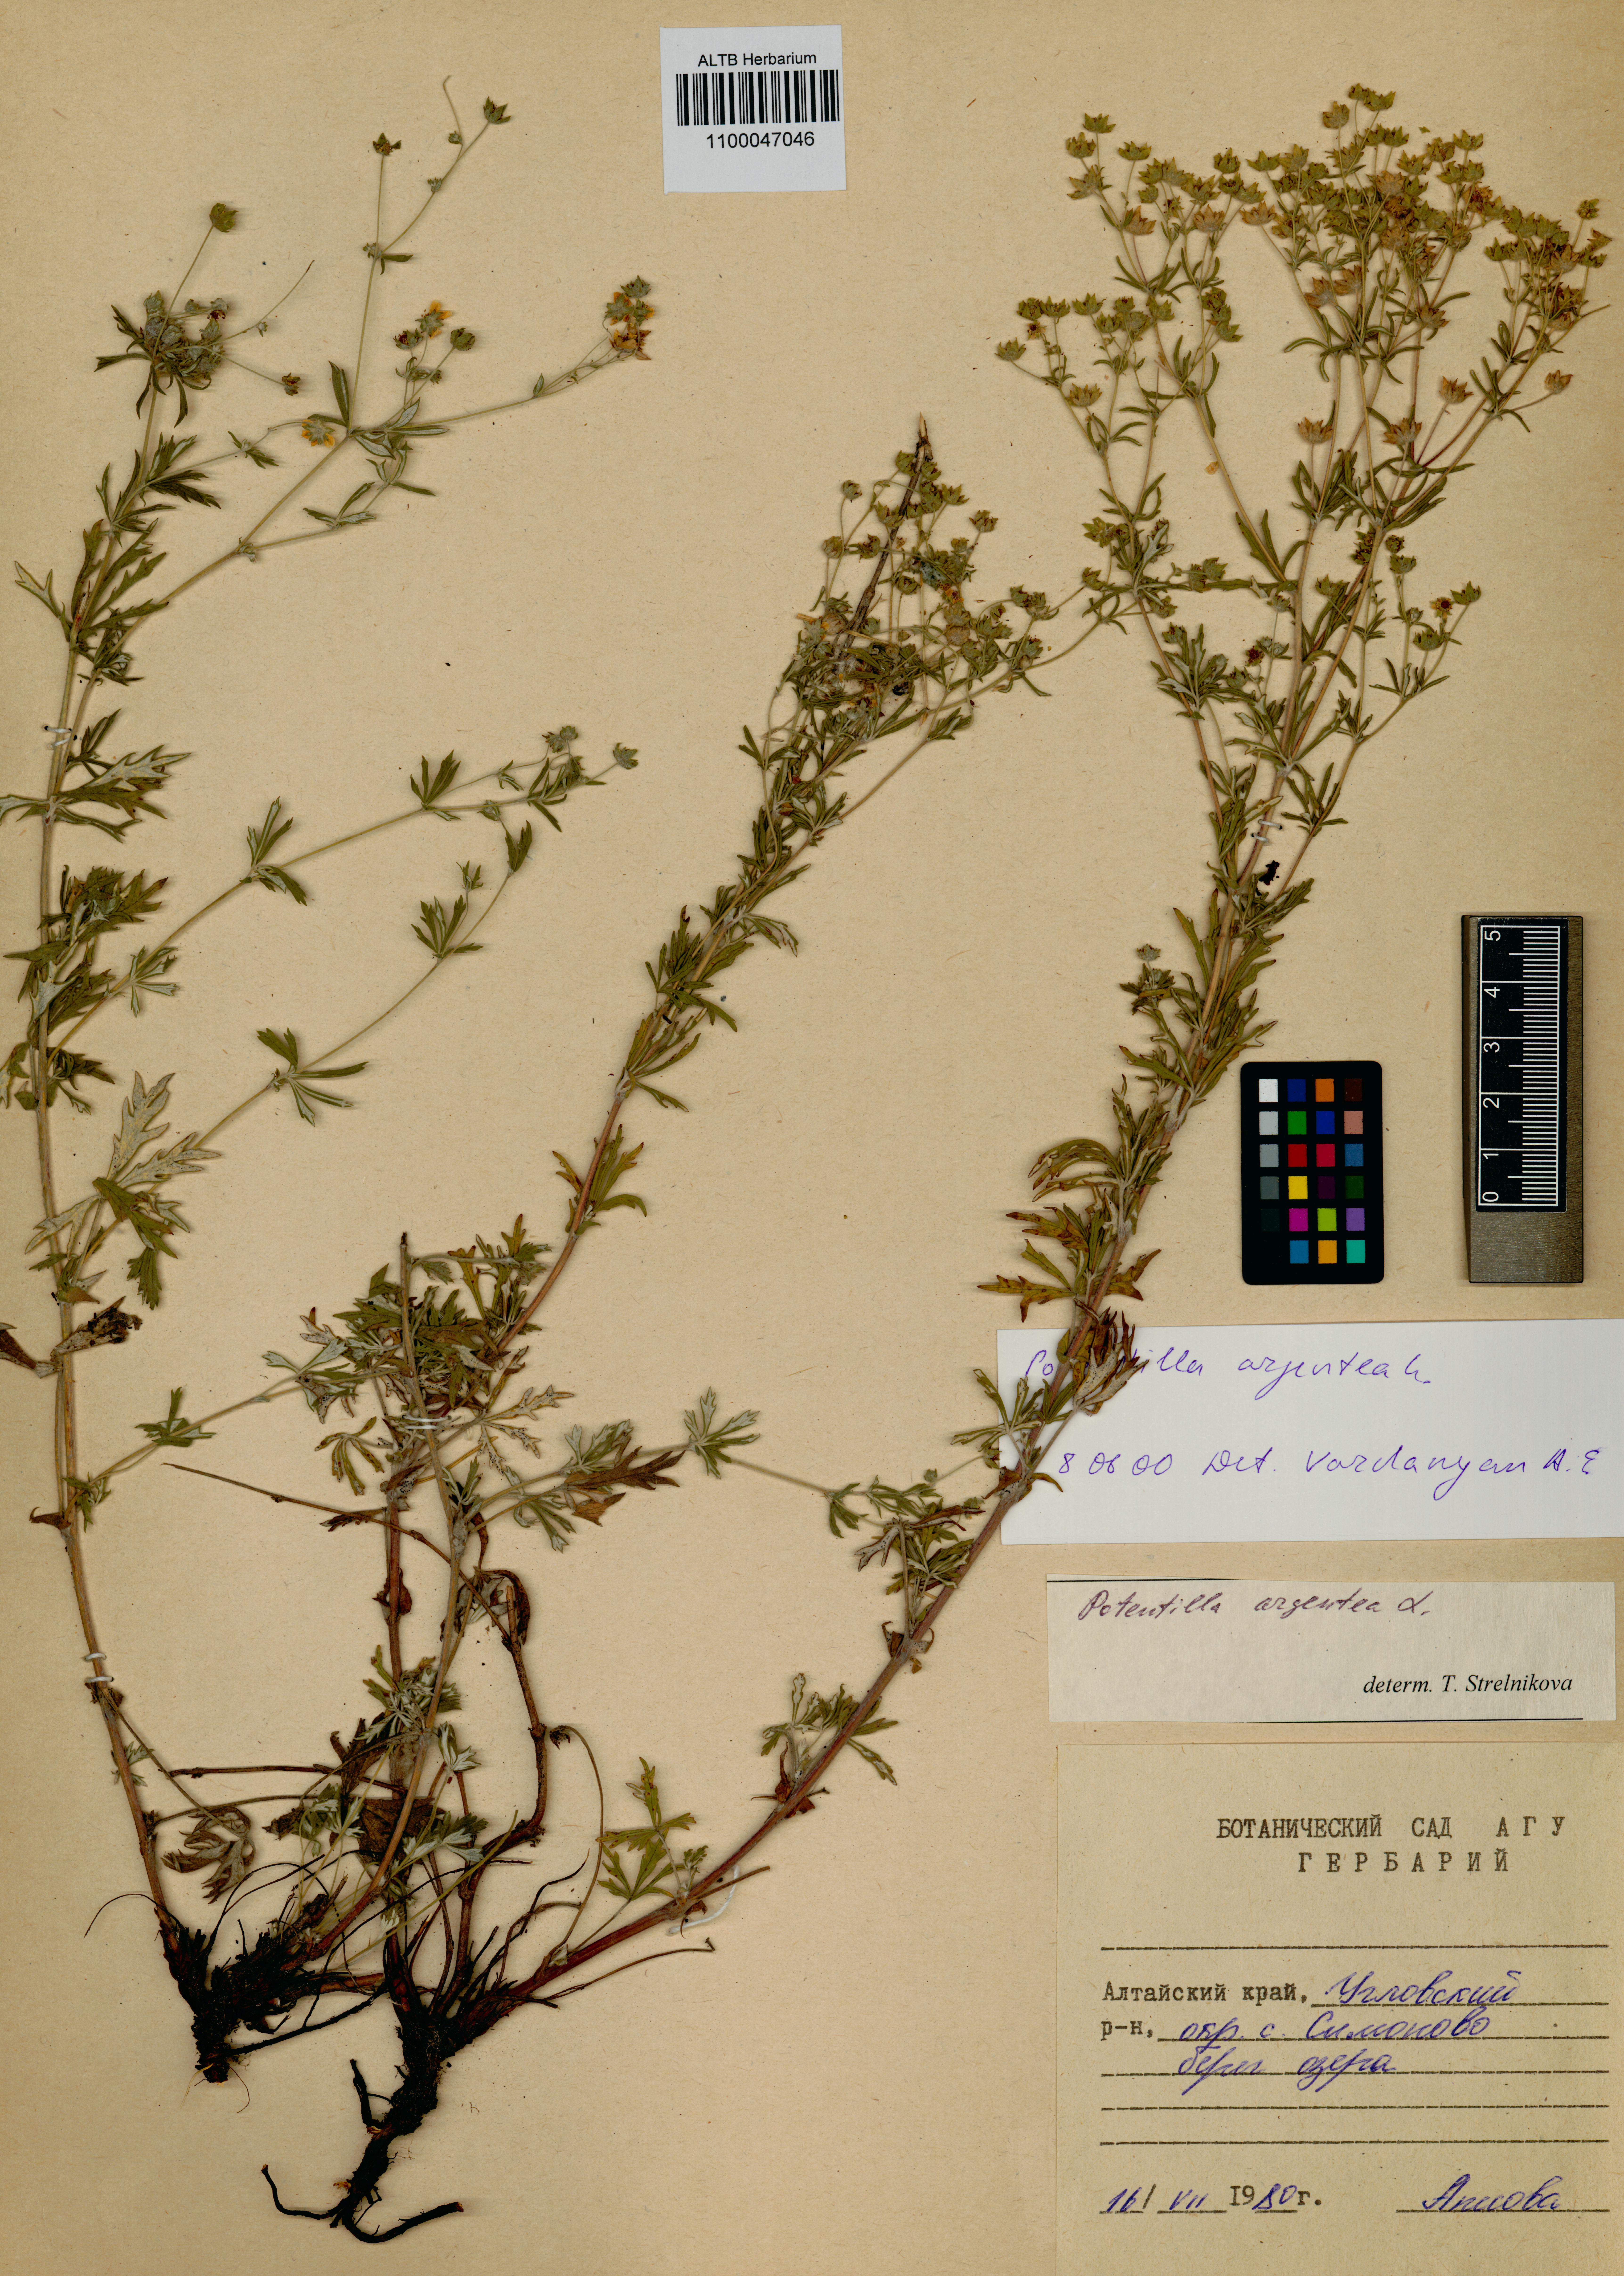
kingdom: Plantae
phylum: Tracheophyta
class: Magnoliopsida
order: Rosales
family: Rosaceae
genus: Potentilla
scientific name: Potentilla argentea
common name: Hoary cinquefoil
